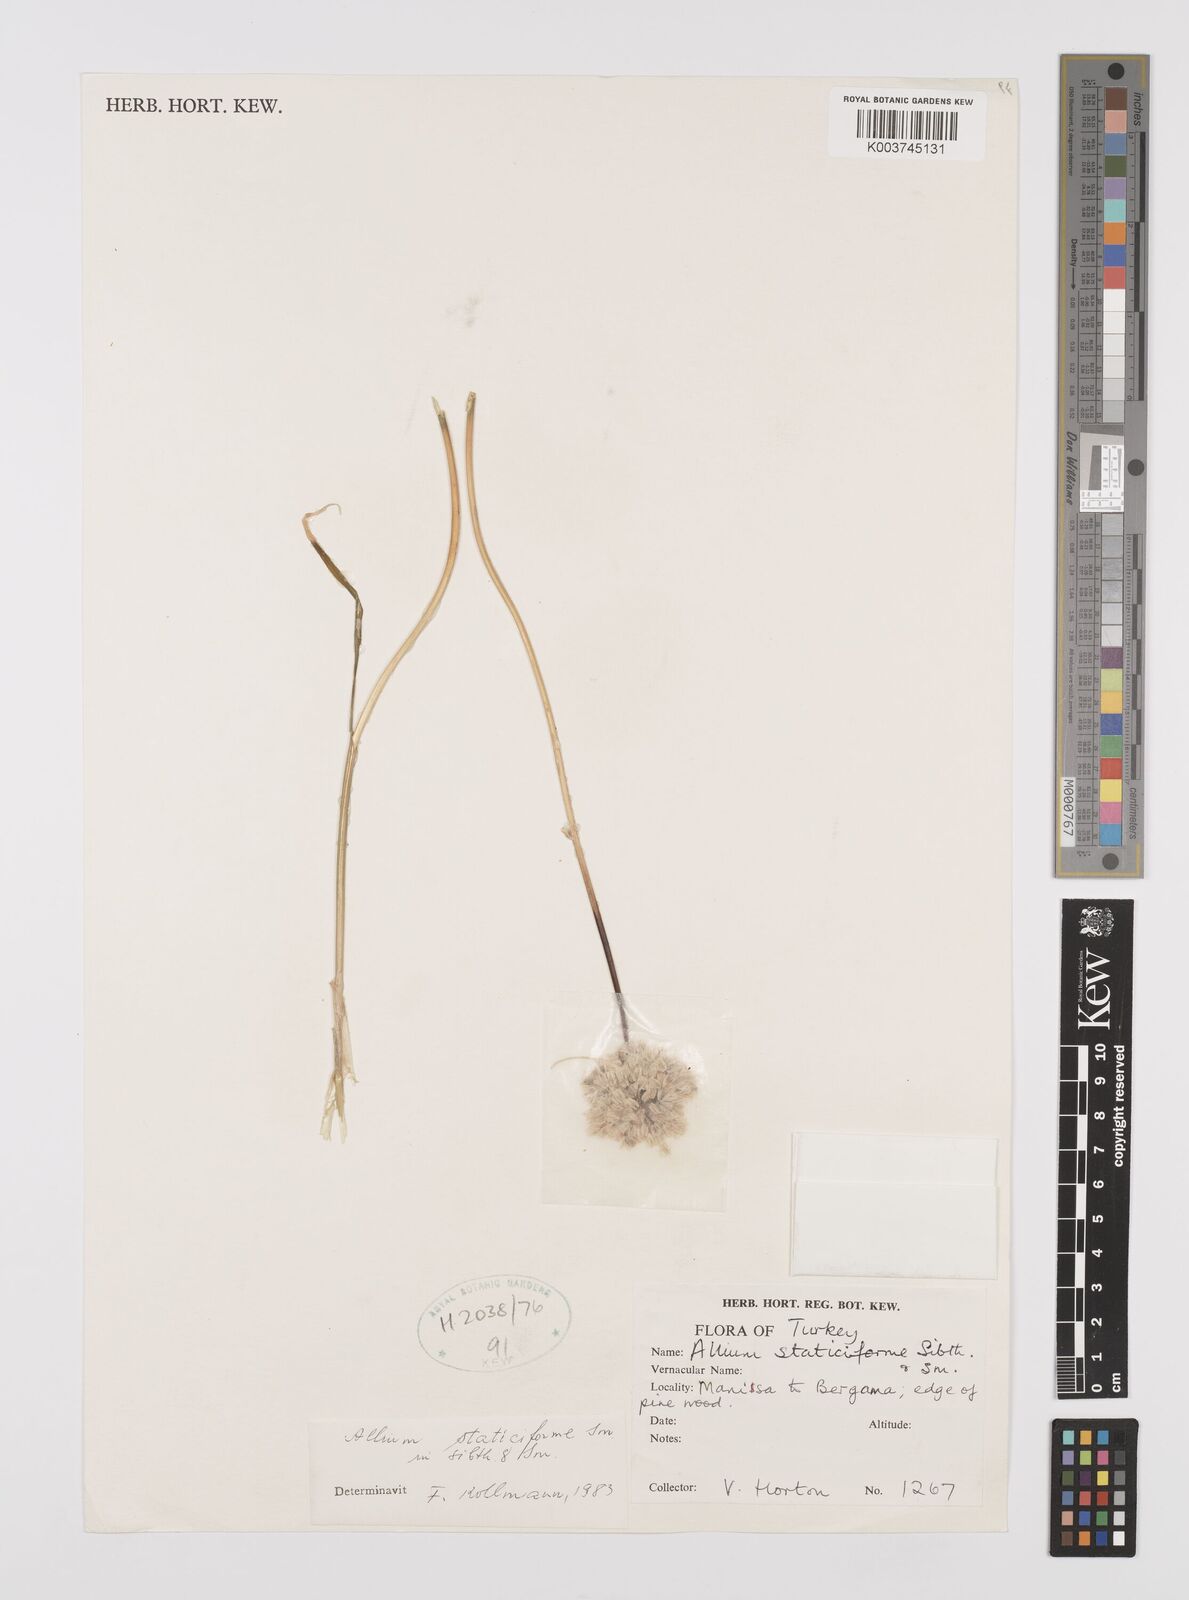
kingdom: Plantae
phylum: Tracheophyta
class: Liliopsida
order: Asparagales
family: Amaryllidaceae
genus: Allium
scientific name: Allium staticiforme
